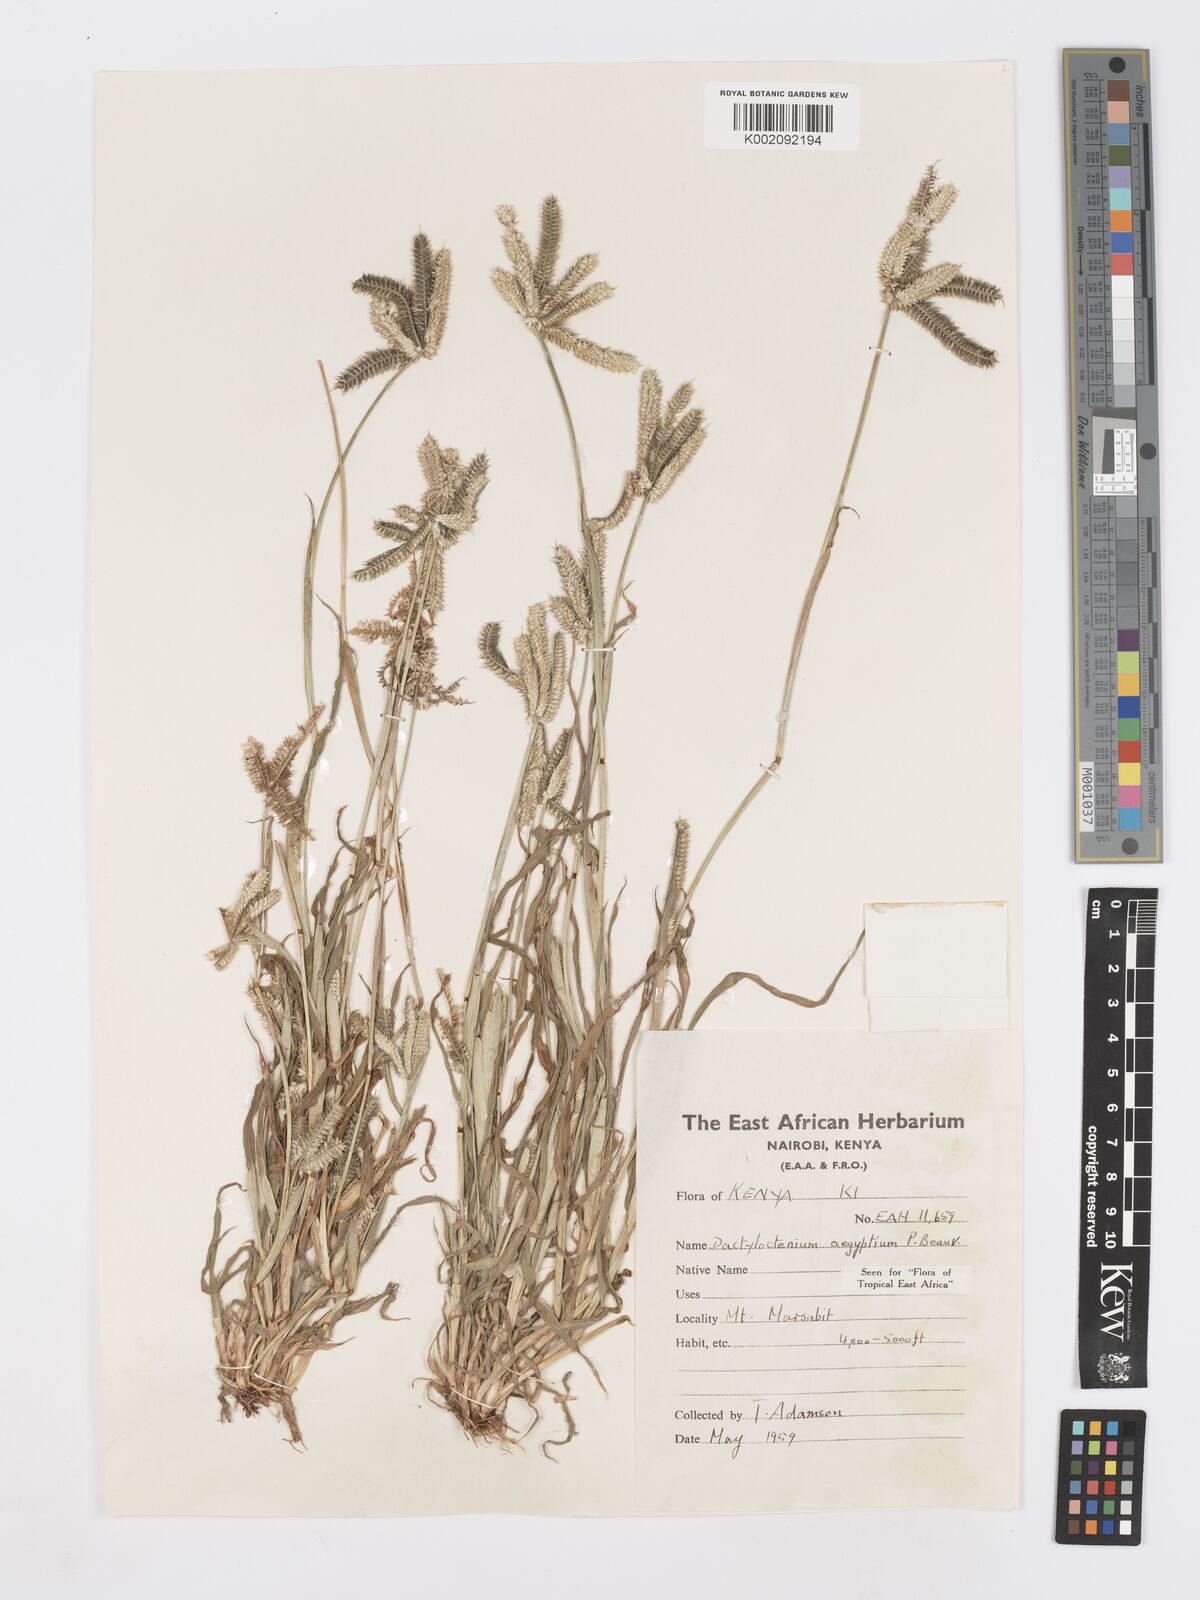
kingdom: Plantae
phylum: Tracheophyta
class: Liliopsida
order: Poales
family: Poaceae
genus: Dactyloctenium
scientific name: Dactyloctenium aegyptium
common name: Egyptian grass
